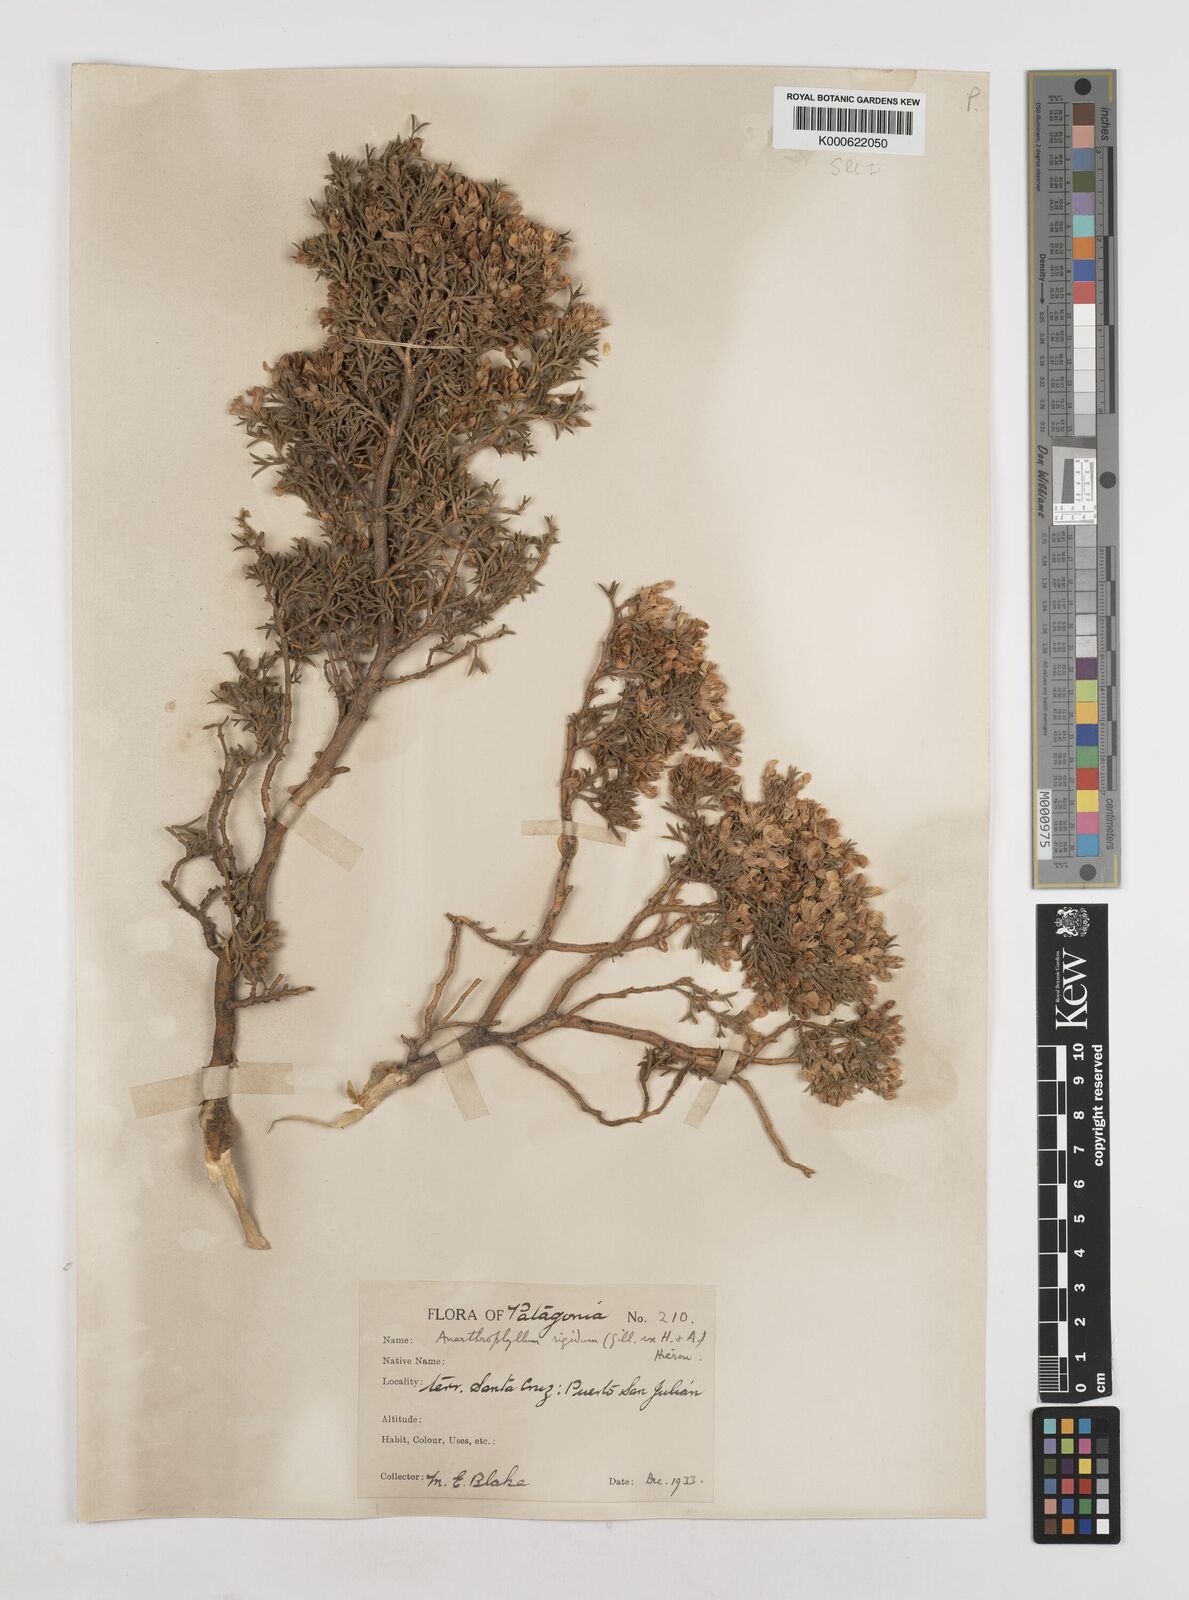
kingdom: Plantae
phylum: Tracheophyta
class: Magnoliopsida
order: Fabales
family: Fabaceae
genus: Anarthrophyllum
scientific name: Anarthrophyllum rigidum
